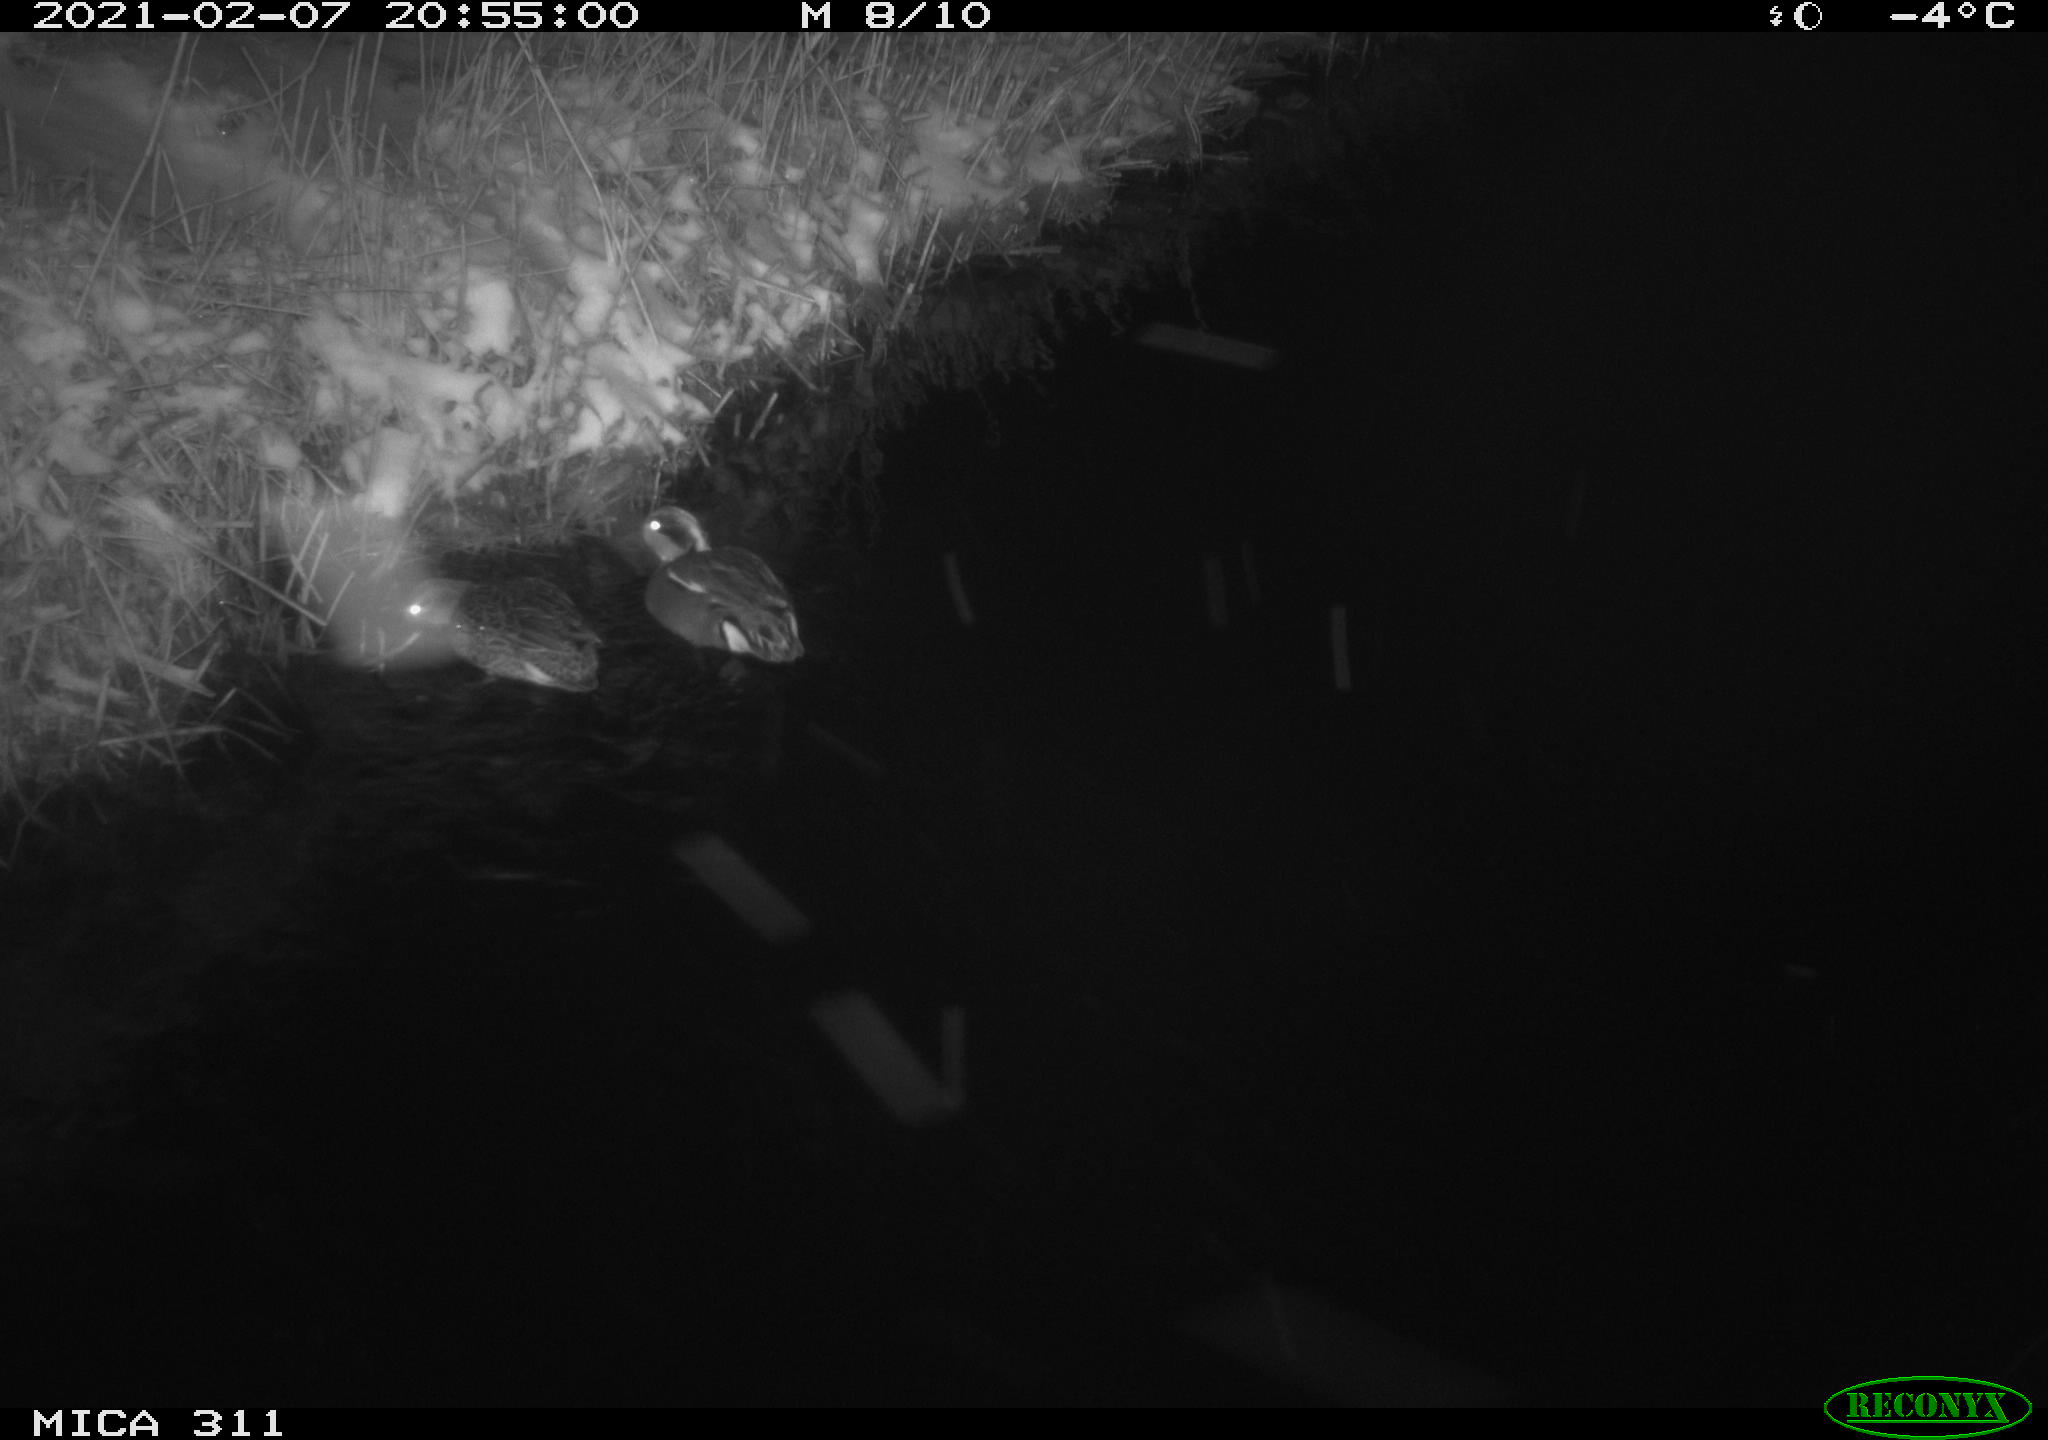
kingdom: Animalia
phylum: Chordata
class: Aves
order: Anseriformes
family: Anatidae
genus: Anas
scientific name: Anas crecca
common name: Eurasian teal
